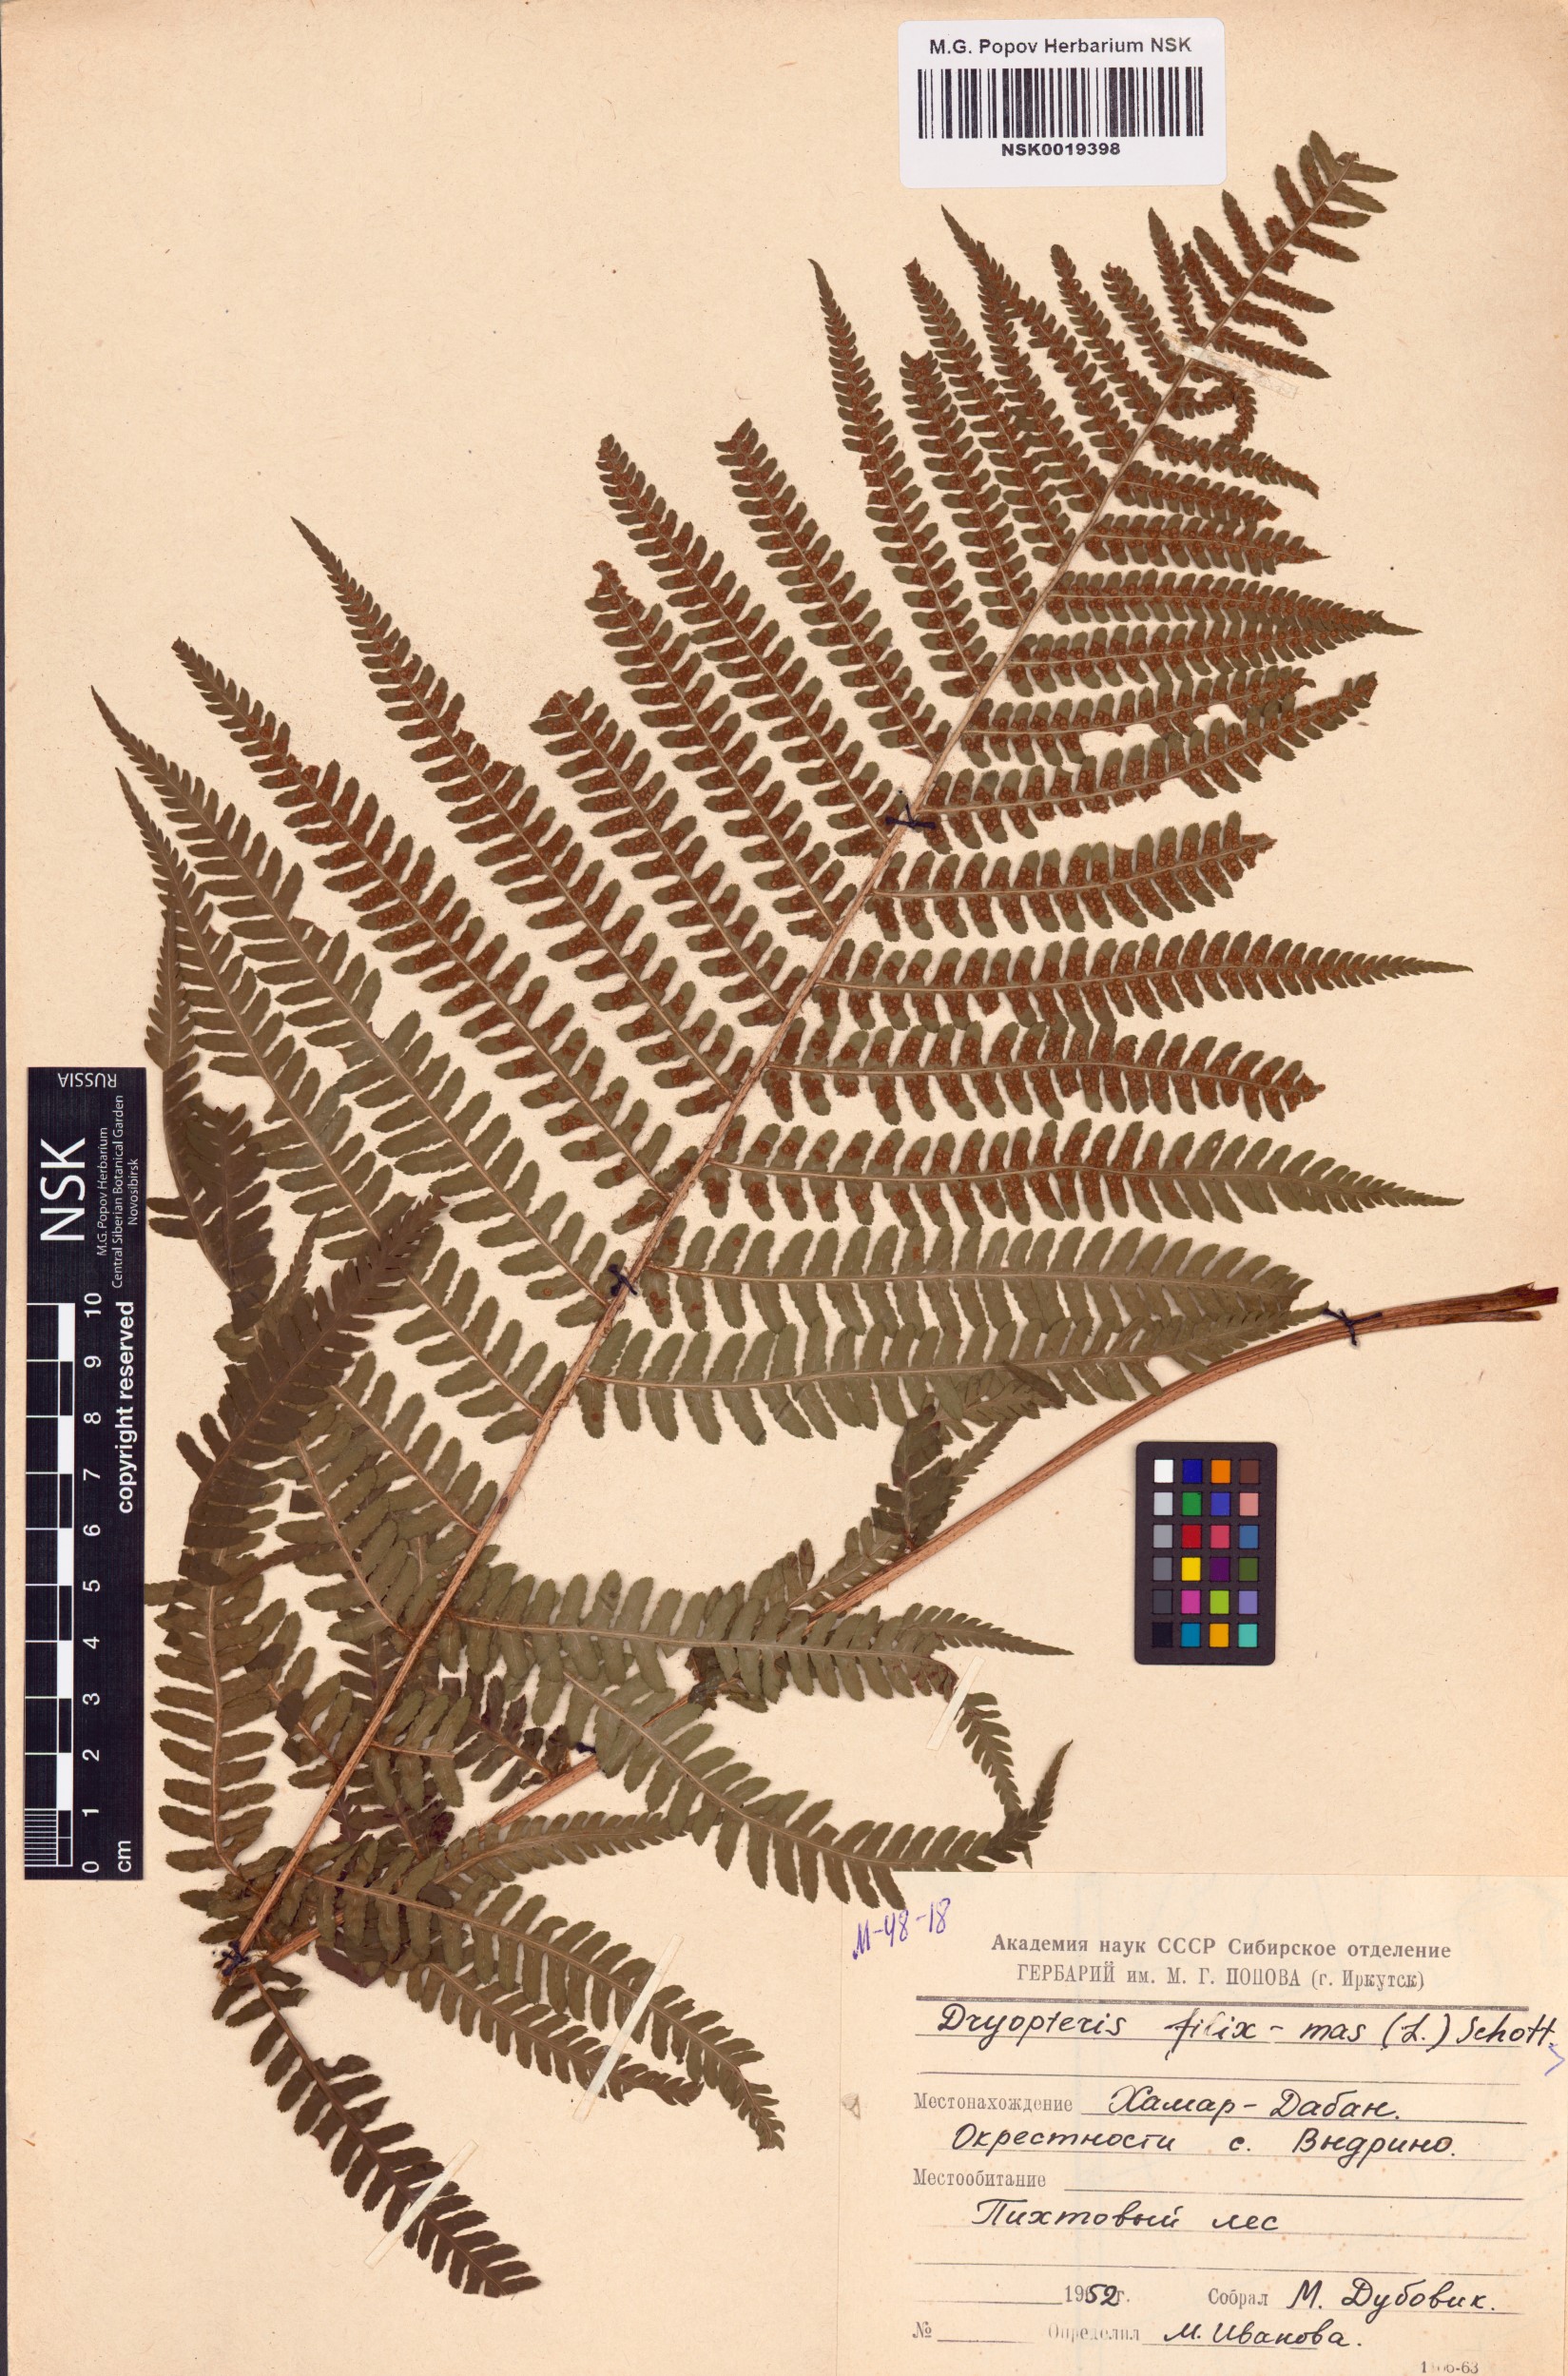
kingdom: Plantae
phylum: Tracheophyta
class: Polypodiopsida
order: Polypodiales
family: Dryopteridaceae
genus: Dryopteris
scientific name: Dryopteris filix-mas
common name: Male fern
